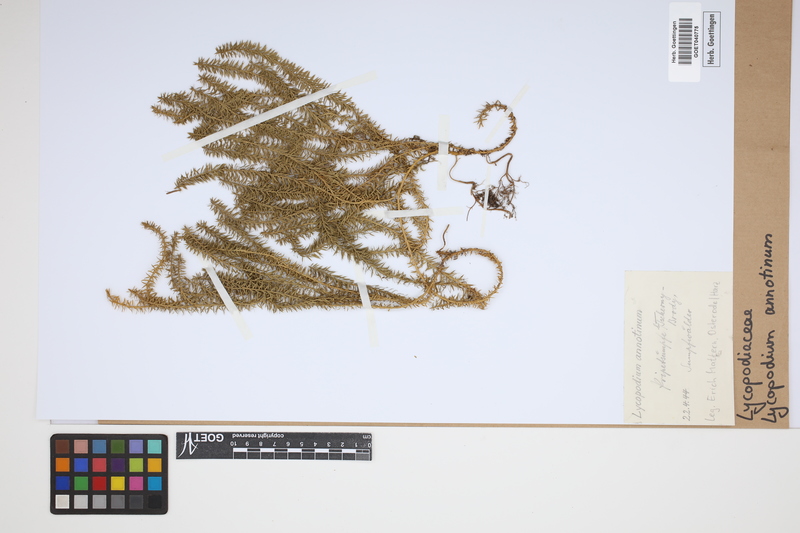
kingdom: Plantae
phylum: Tracheophyta
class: Lycopodiopsida
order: Lycopodiales
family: Lycopodiaceae
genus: Spinulum
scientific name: Spinulum annotinum
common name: Interrupted club-moss
